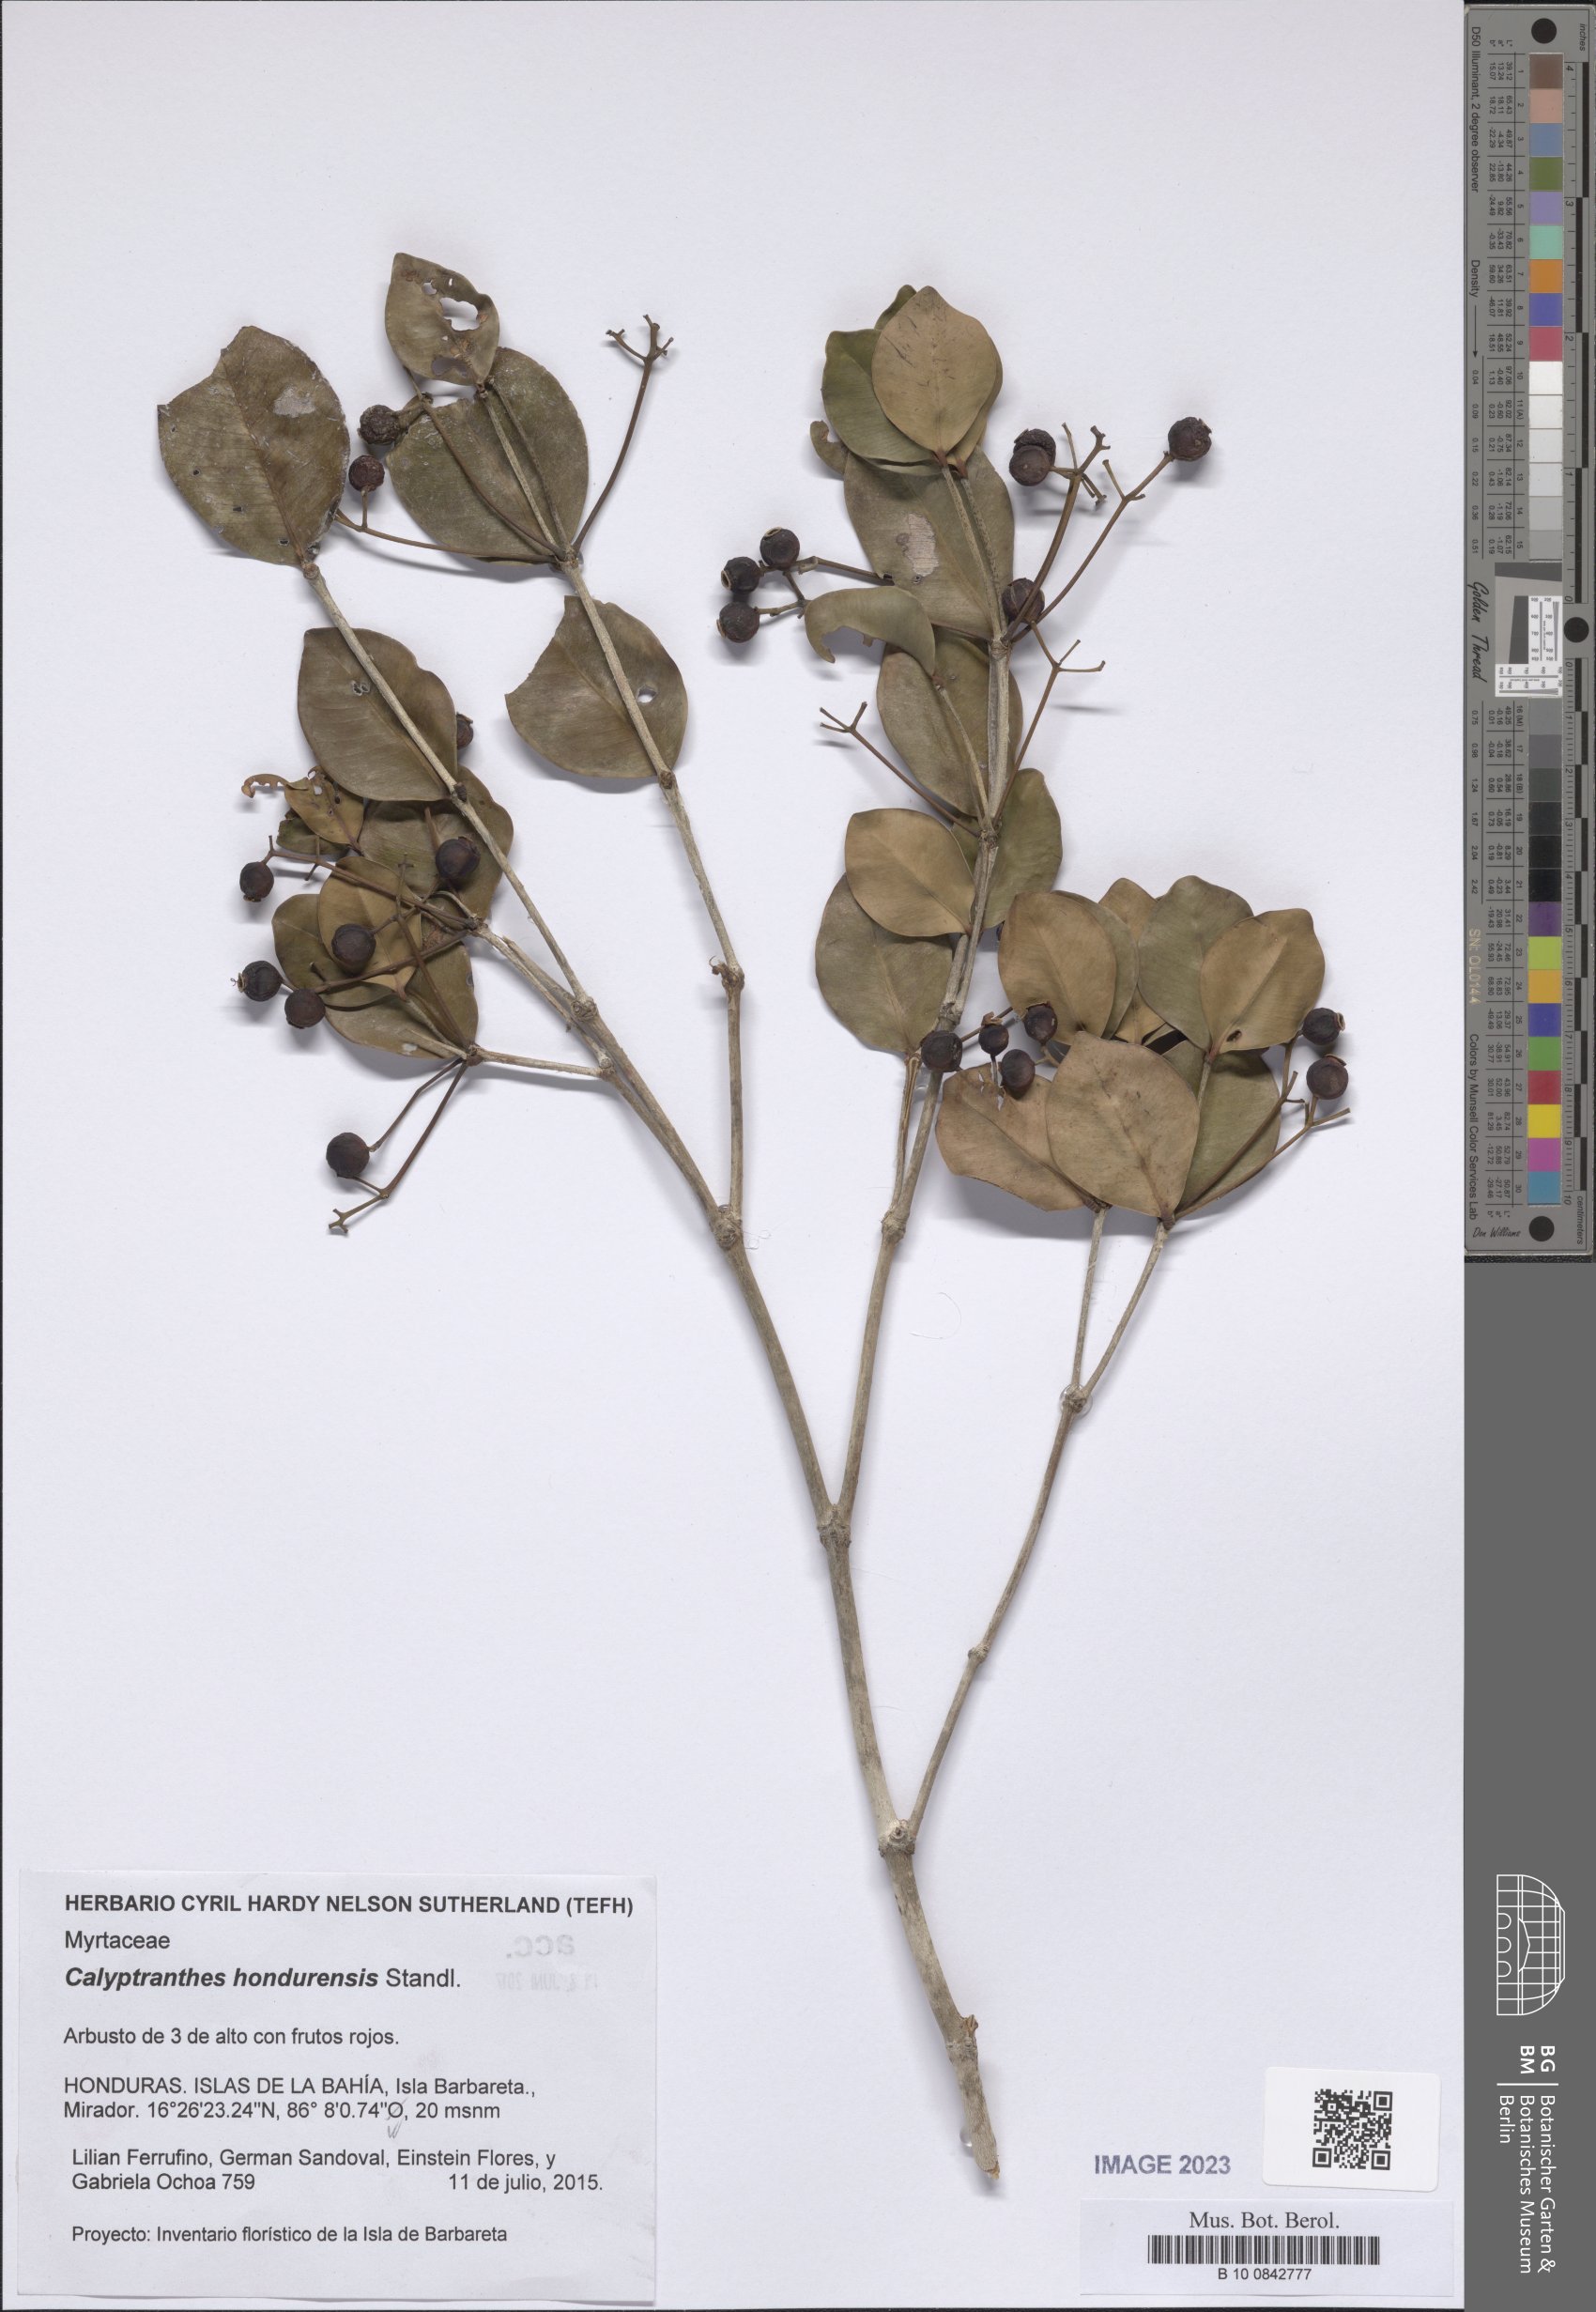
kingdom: Plantae
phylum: Tracheophyta
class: Magnoliopsida
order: Myrtales
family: Myrtaceae
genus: Myrcia
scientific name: Myrcia hondurensis
